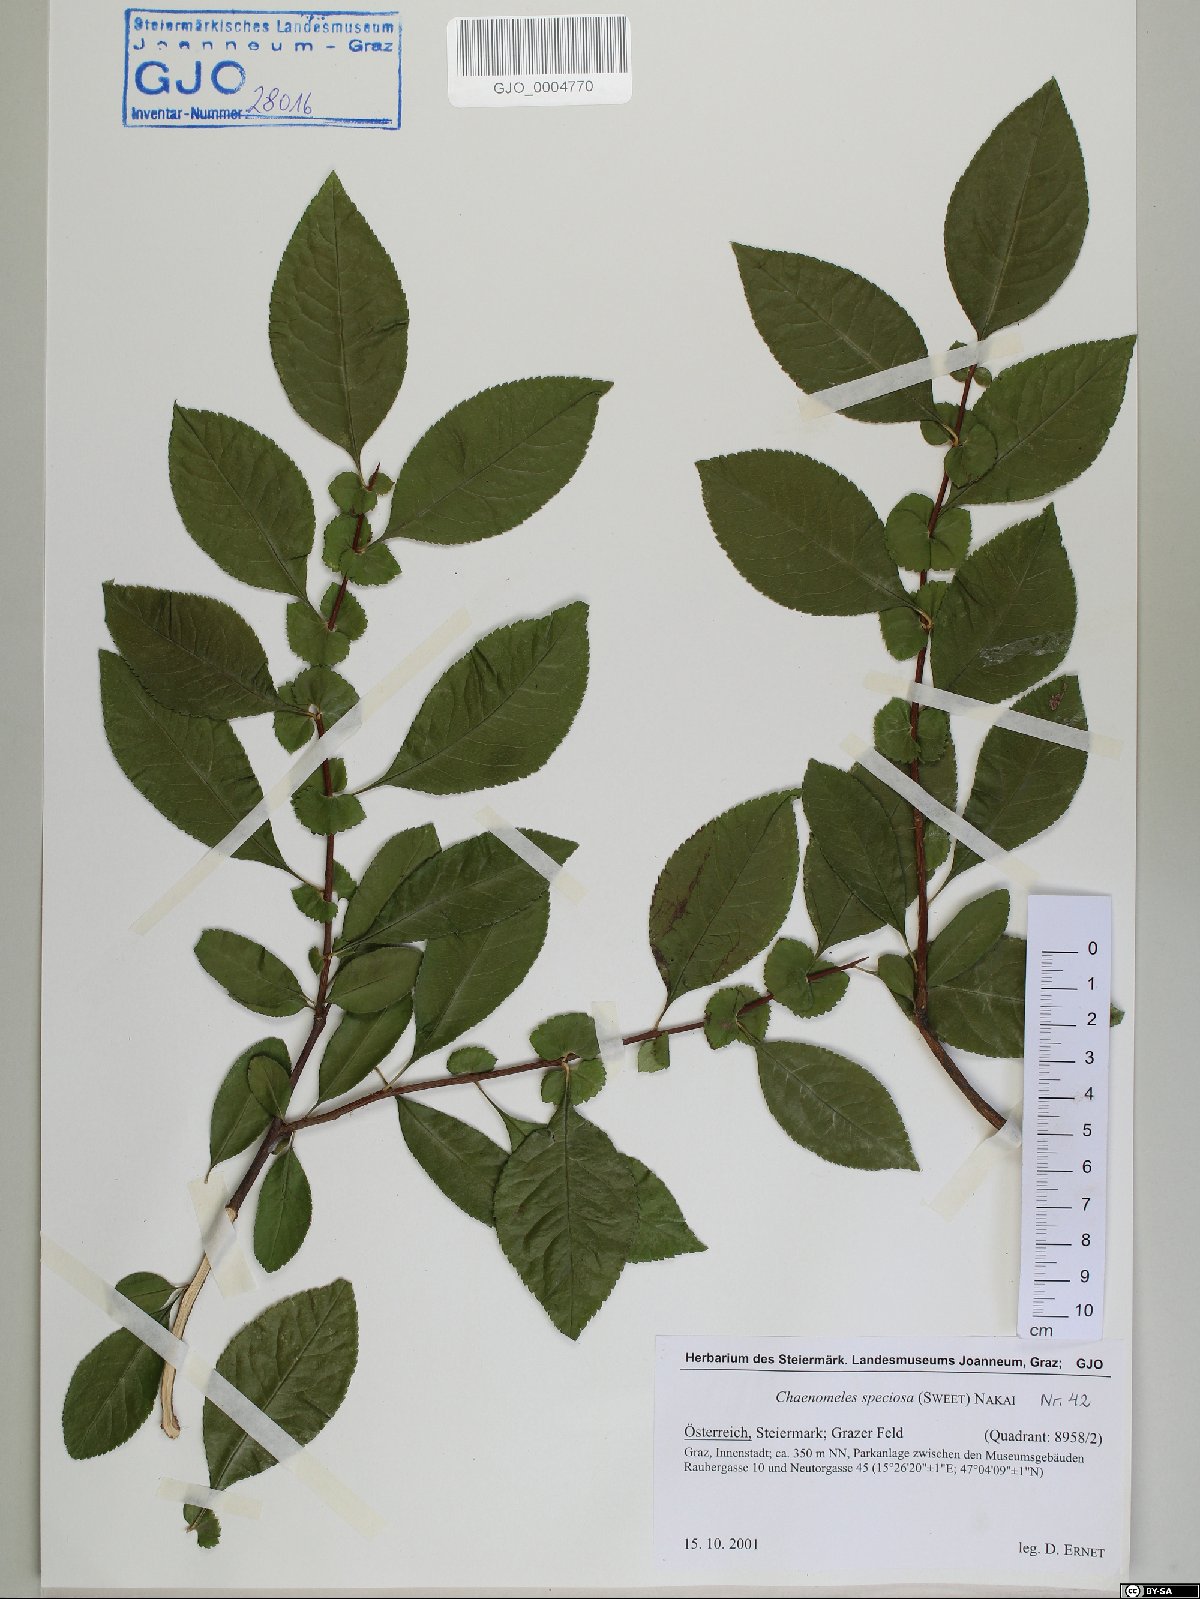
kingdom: Plantae
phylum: Tracheophyta
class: Magnoliopsida
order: Rosales
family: Rosaceae
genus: Chaenomeles
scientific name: Chaenomeles speciosa
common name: Japanese quince
